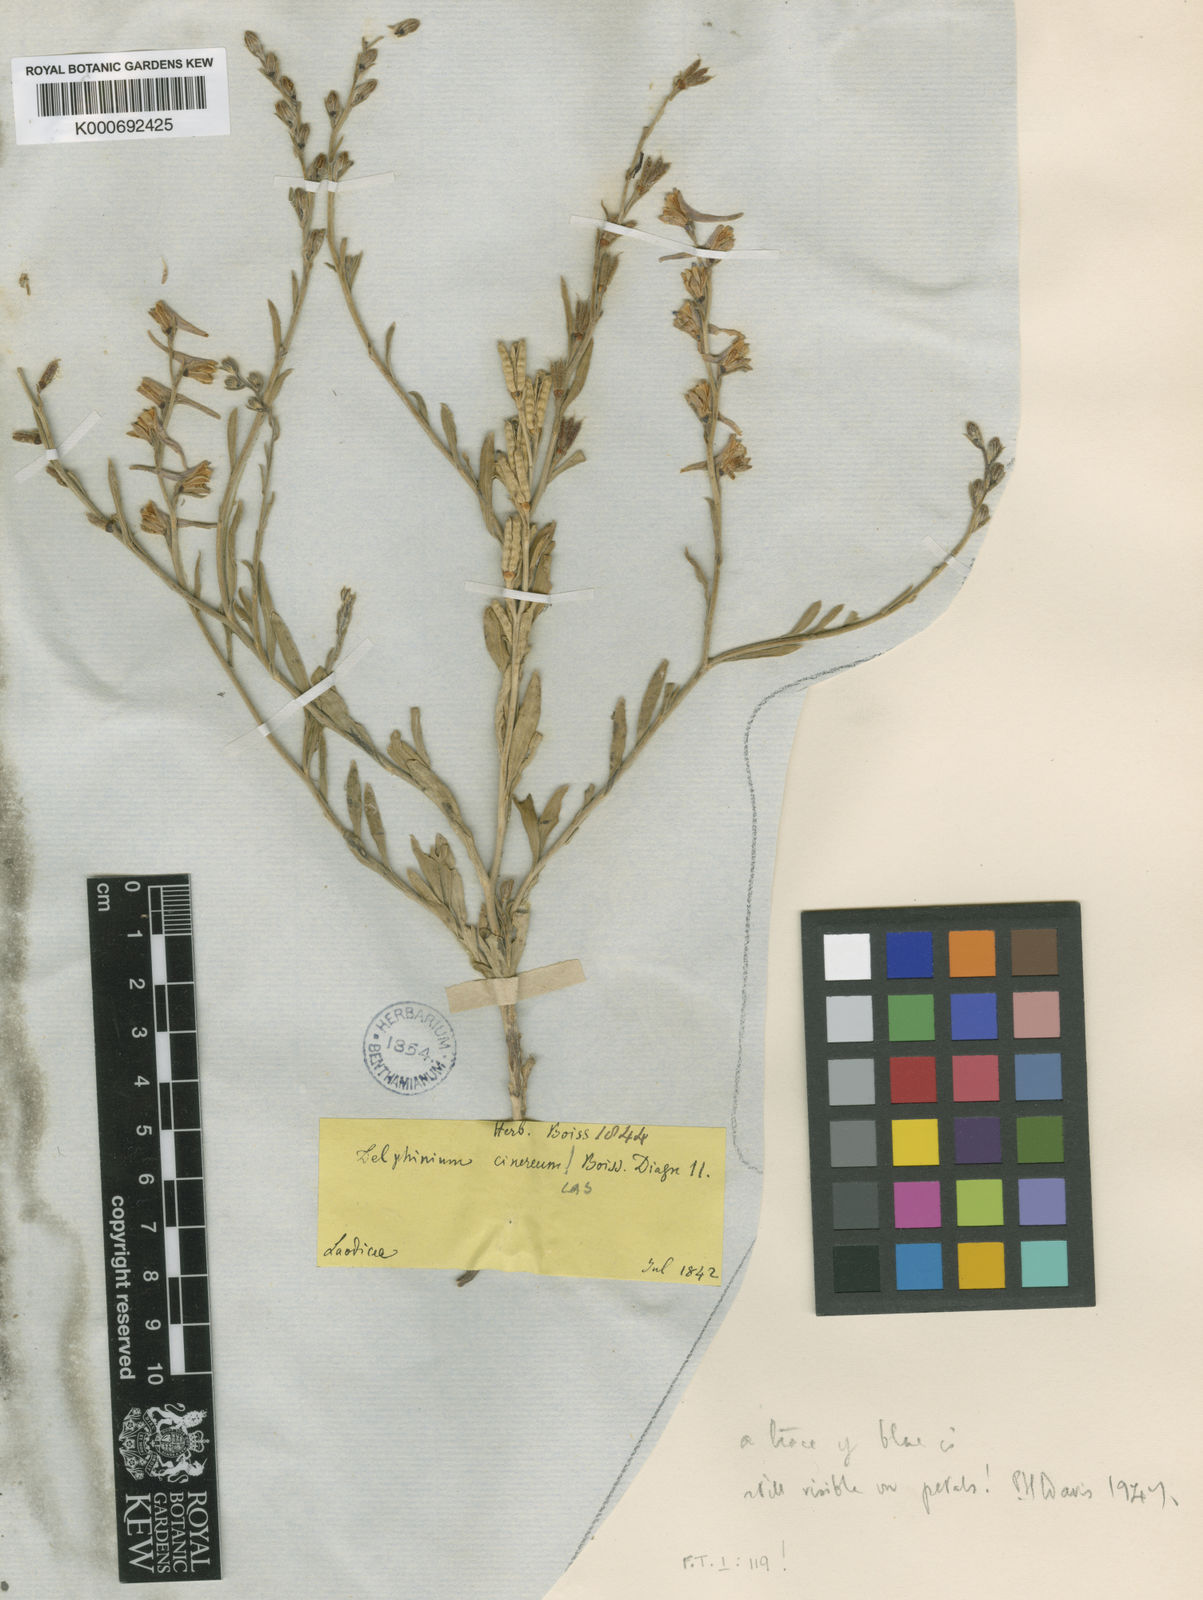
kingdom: Plantae
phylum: Tracheophyta
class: Magnoliopsida
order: Ranunculales
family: Ranunculaceae
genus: Delphinium
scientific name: Delphinium cinereum
